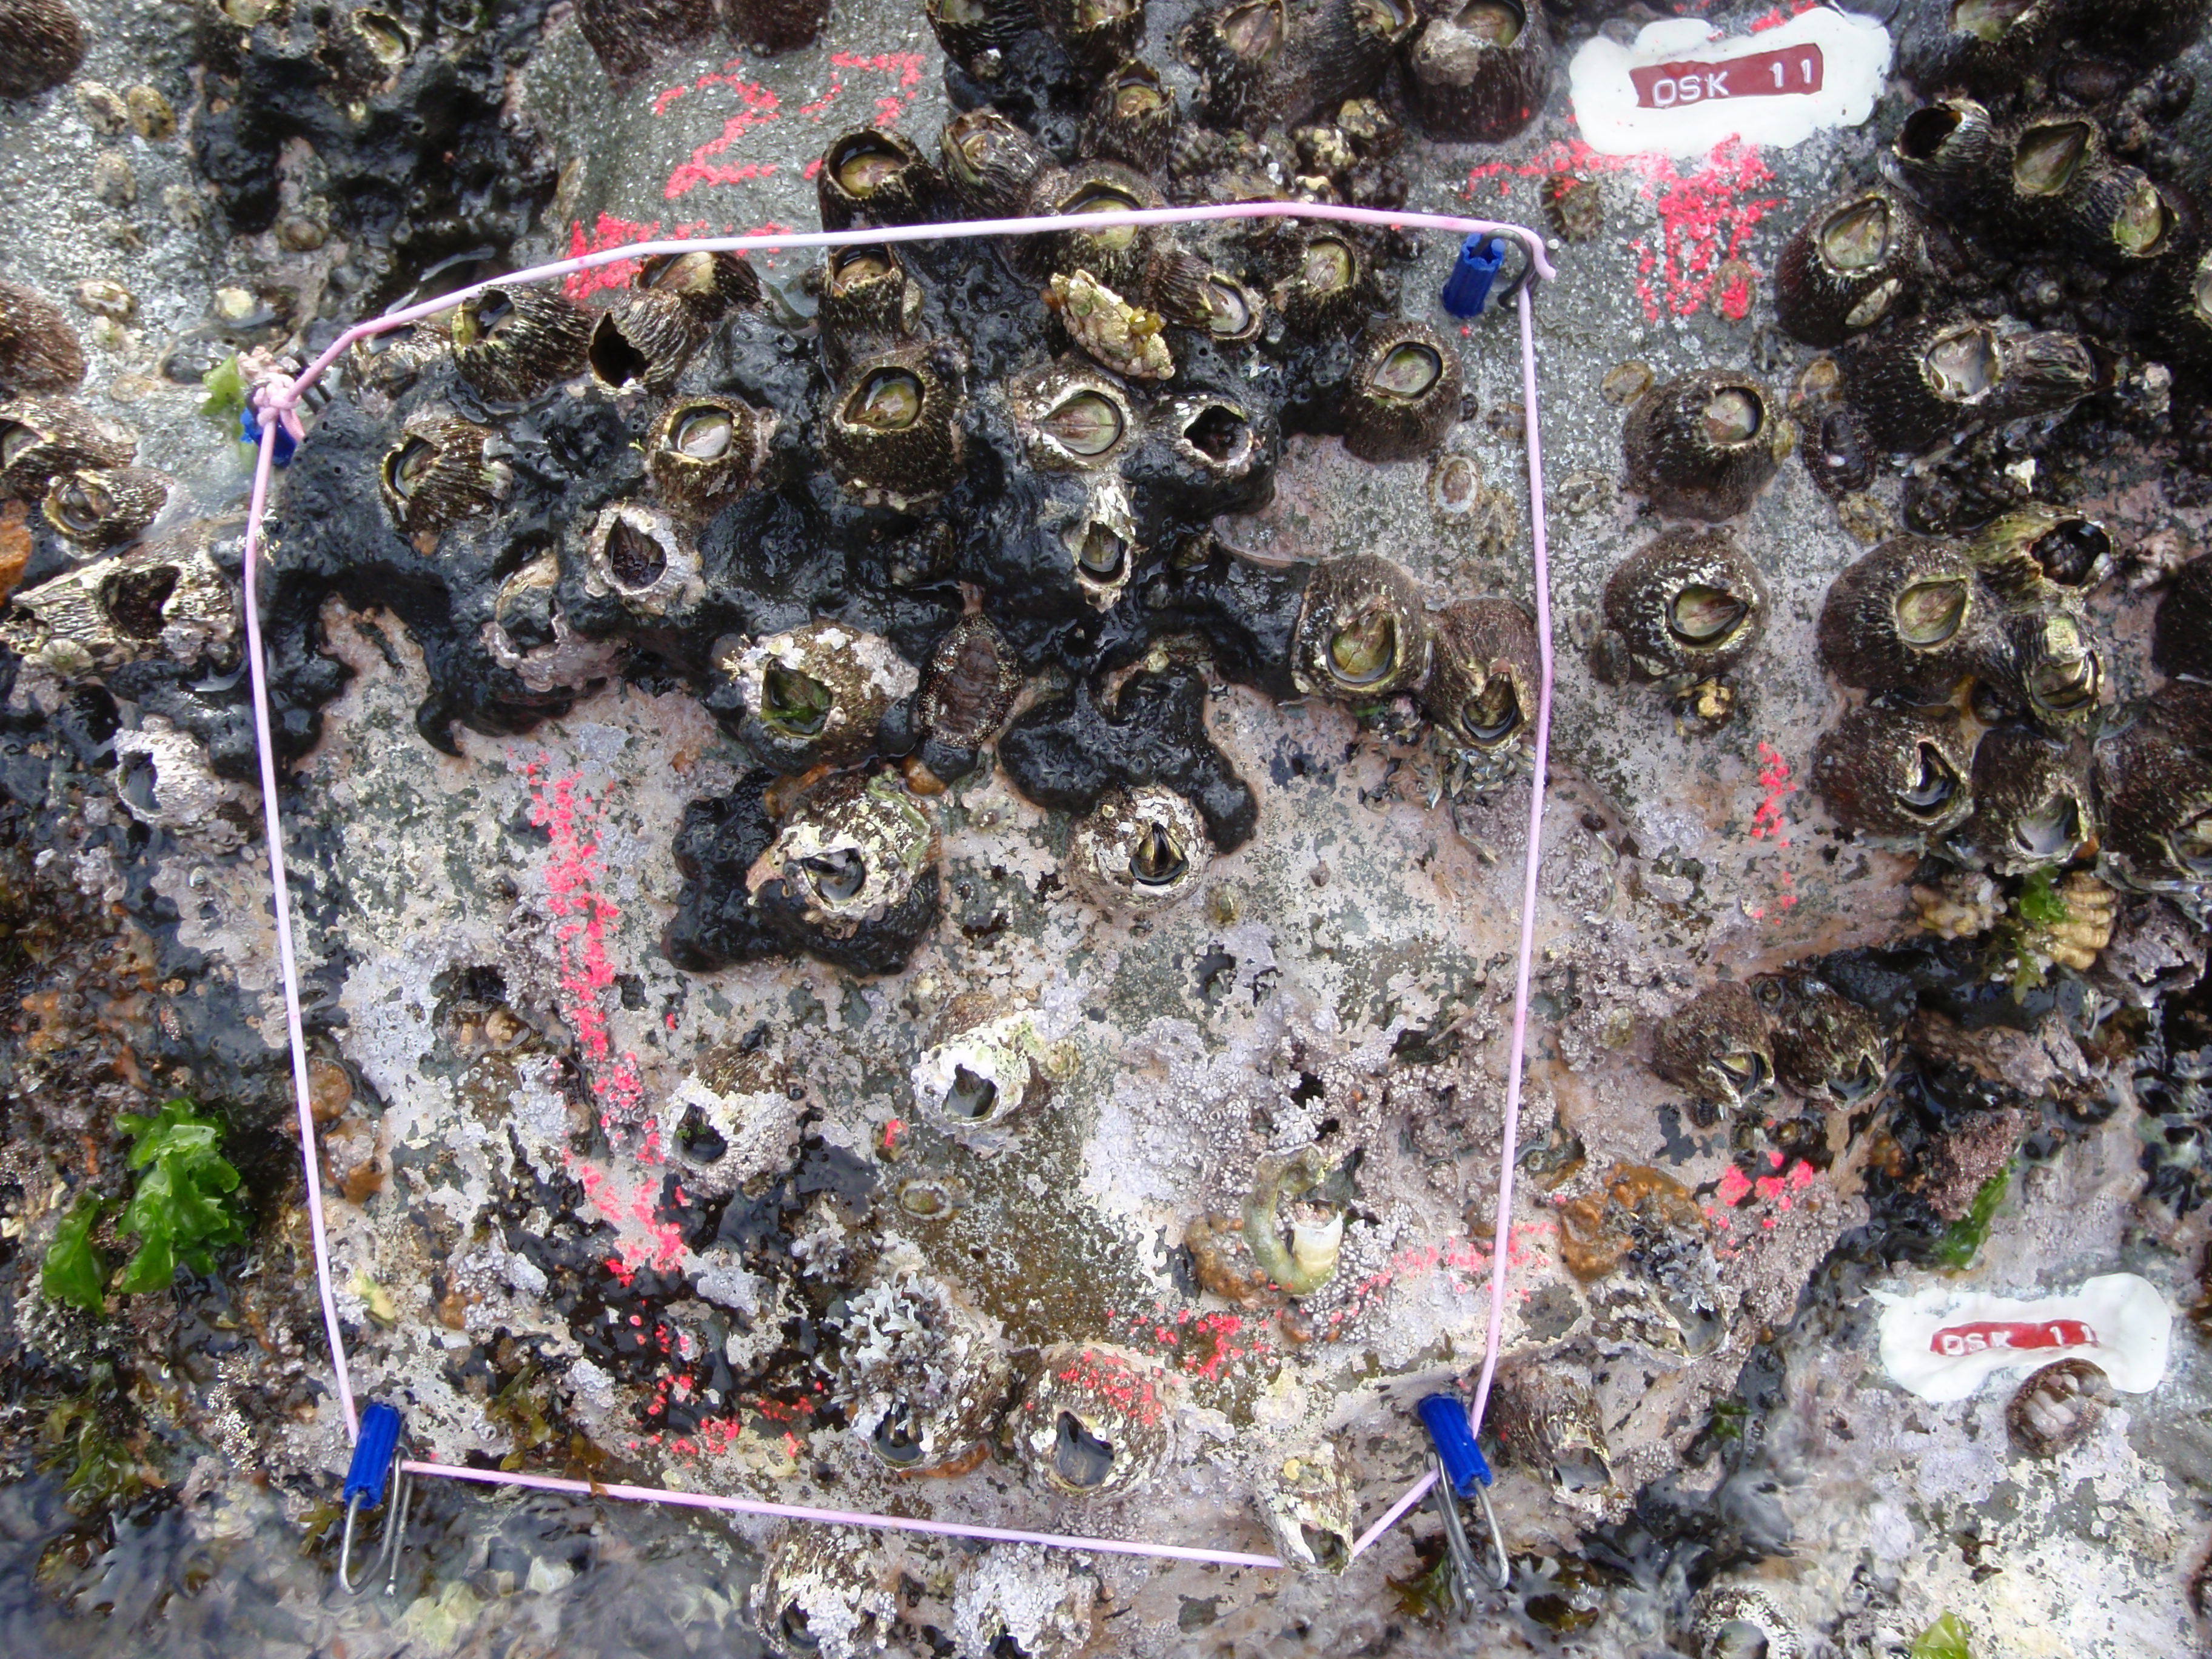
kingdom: Animalia
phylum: Arthropoda
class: Maxillopoda
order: Sessilia
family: Chthamalidae
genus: Chthamalus
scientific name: Chthamalus challengeri
